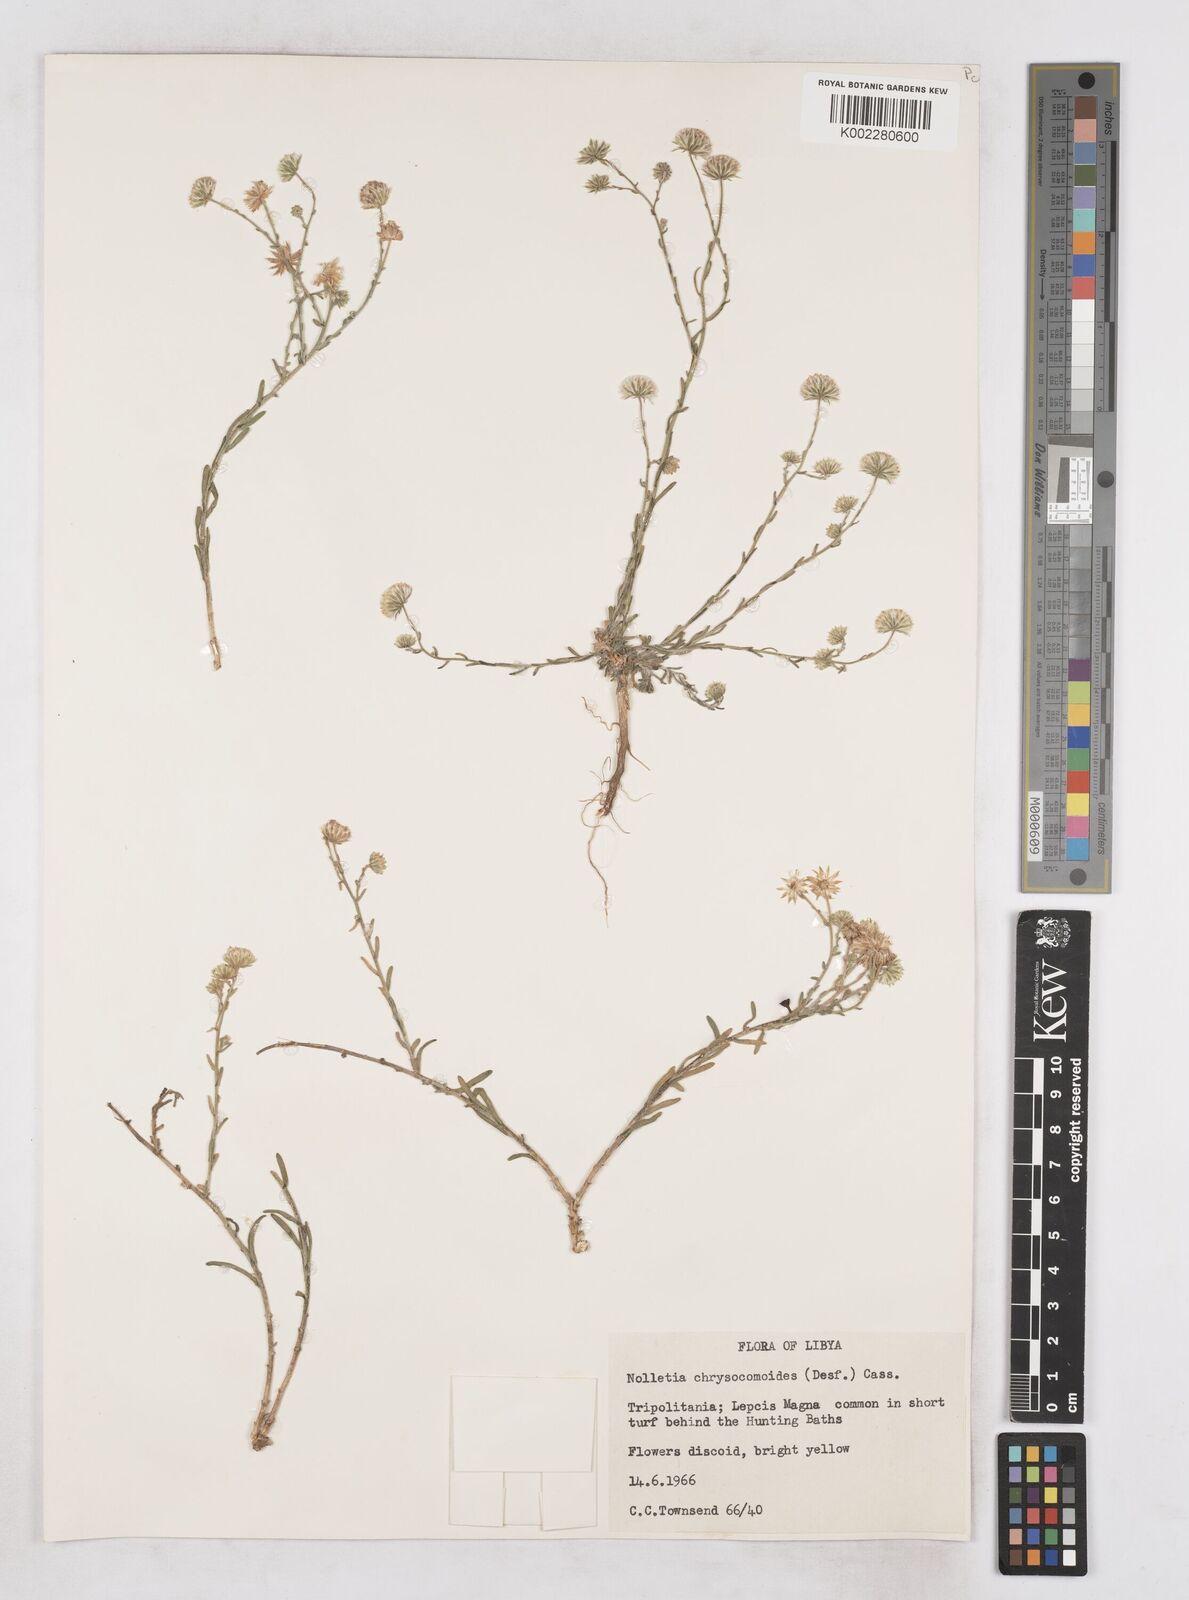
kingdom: Plantae
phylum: Tracheophyta
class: Magnoliopsida
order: Asterales
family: Asteraceae
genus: Nolletia
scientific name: Nolletia chrysocomoides
